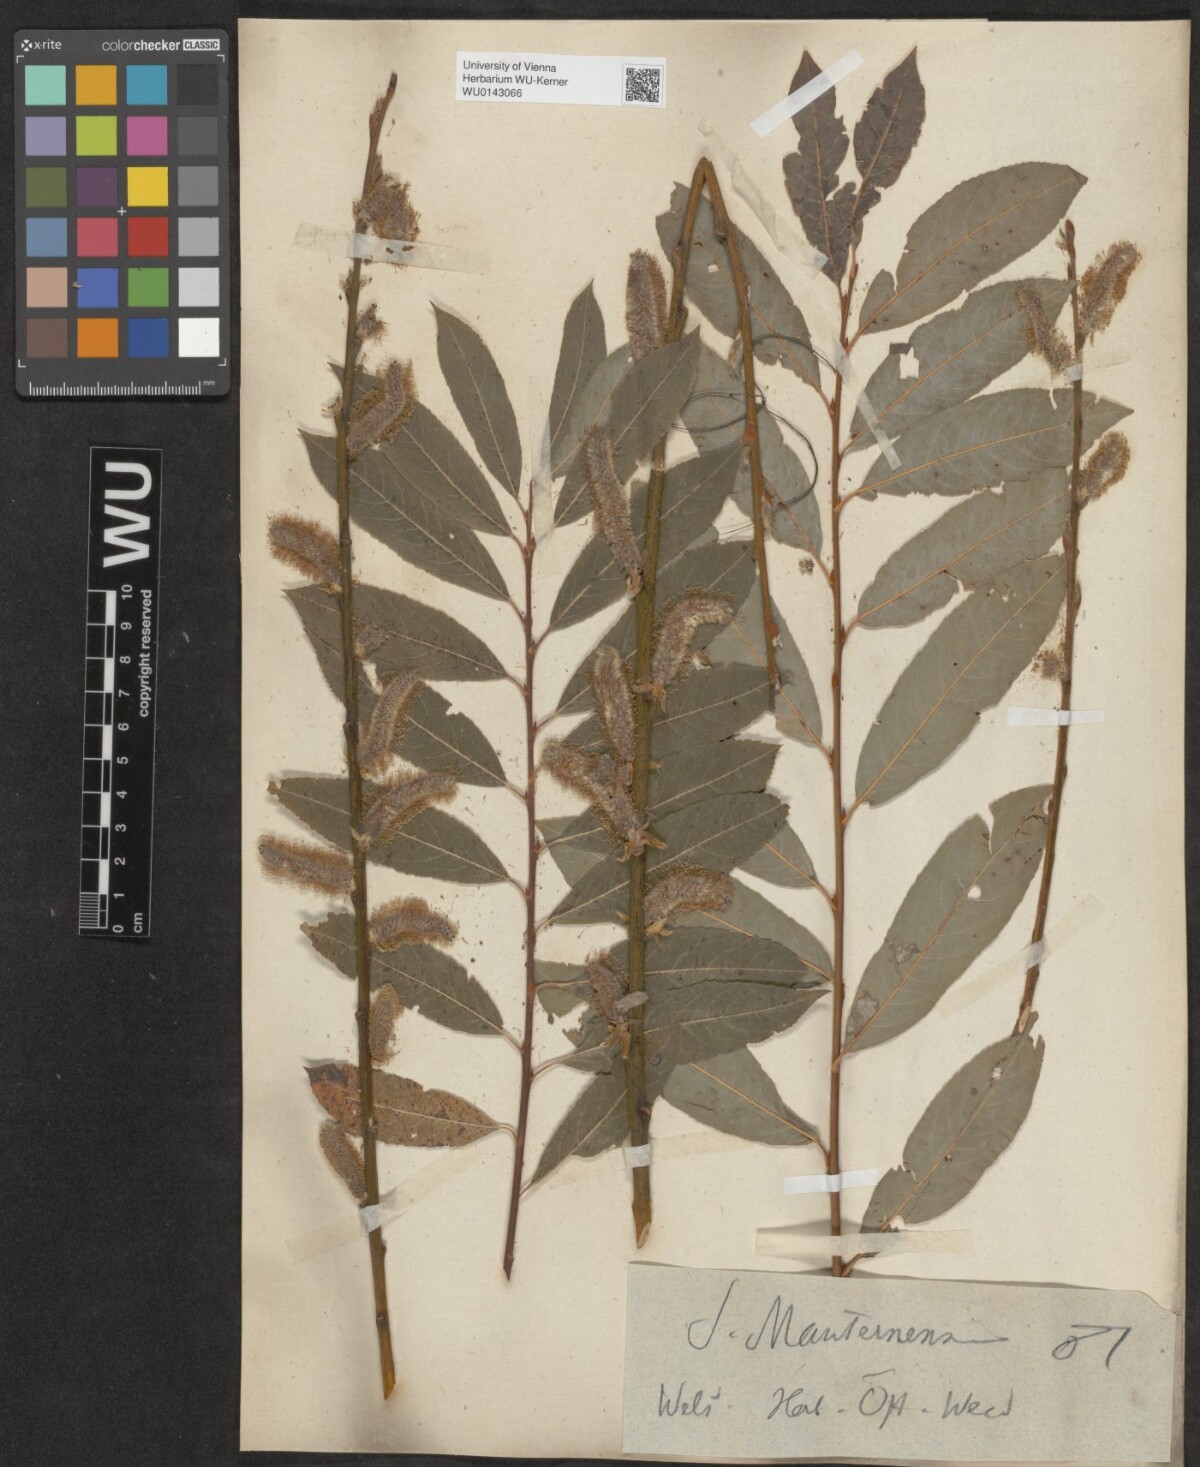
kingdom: Plantae
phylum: Tracheophyta
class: Magnoliopsida
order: Malpighiales
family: Salicaceae
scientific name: Salicaceae
